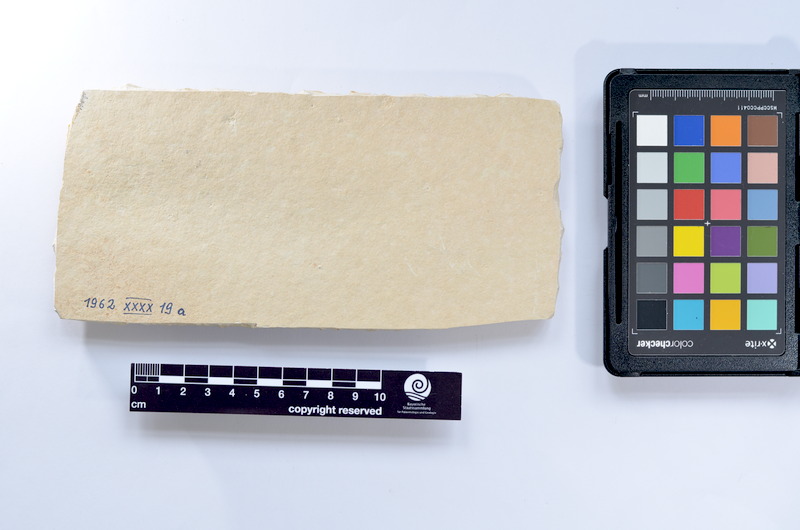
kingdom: Animalia
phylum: Chordata
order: Elopiformes
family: Anaethalionidae
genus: Anaethalion
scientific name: Anaethalion knorri
